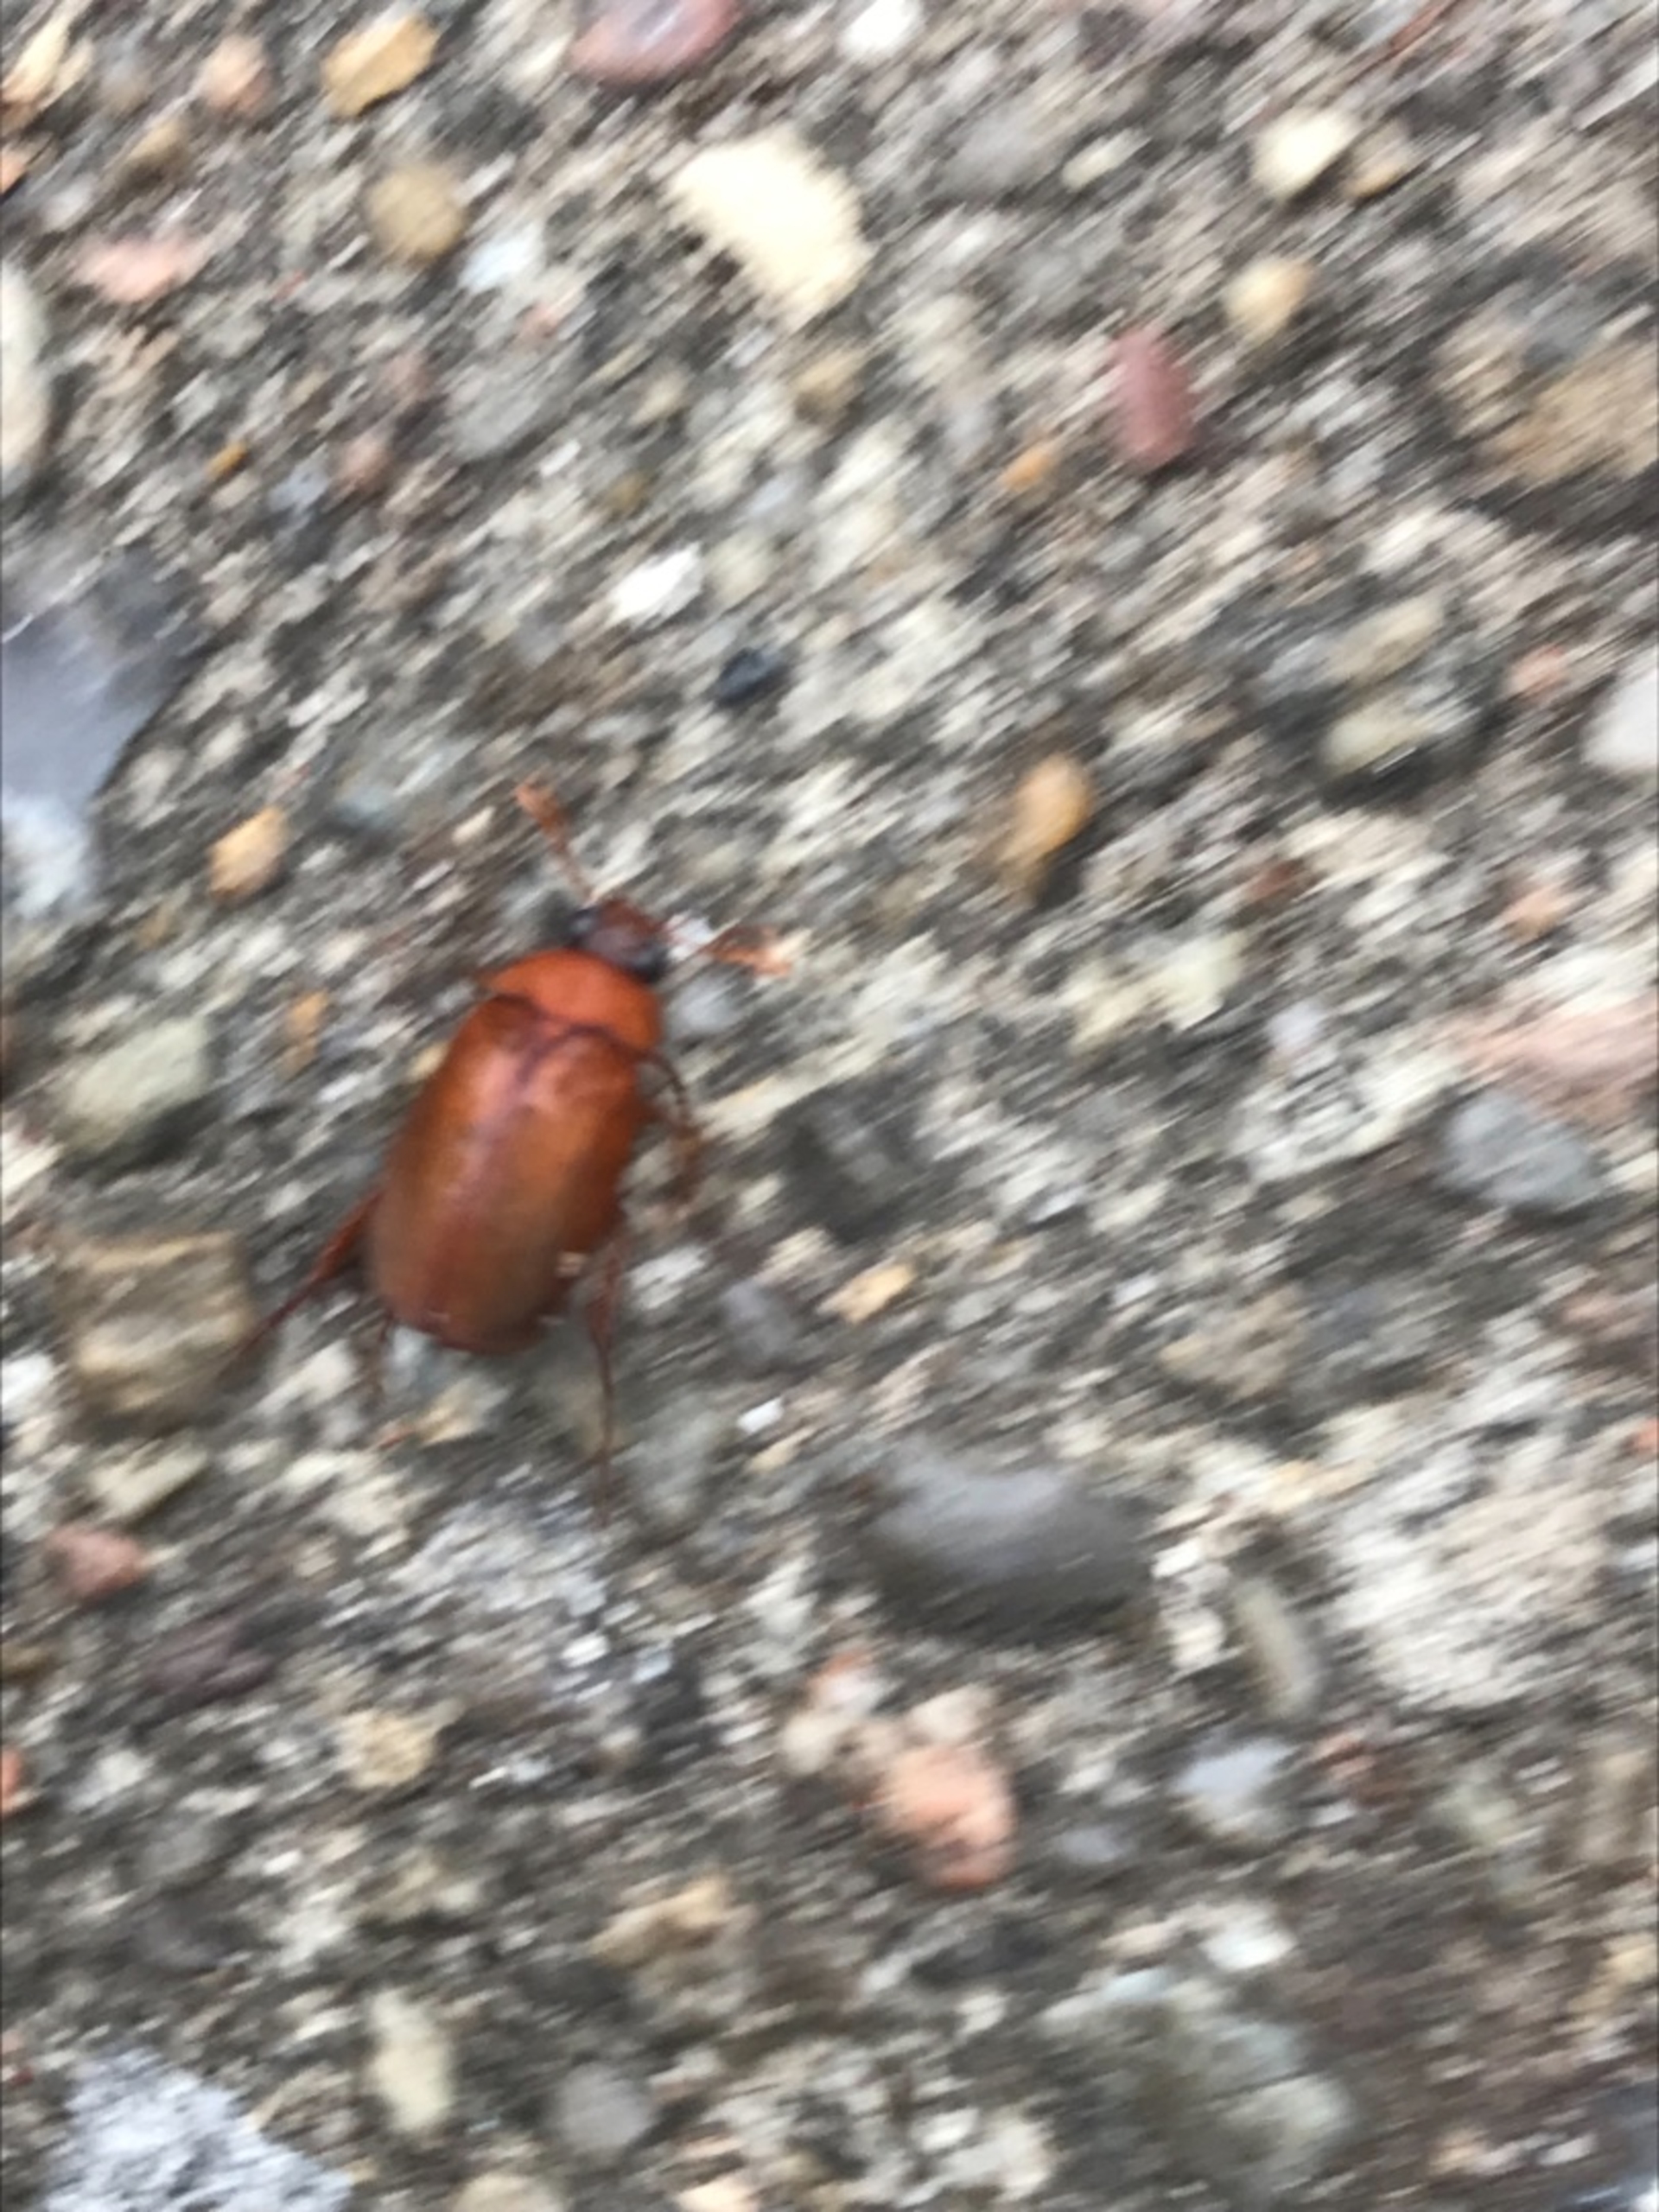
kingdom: Animalia
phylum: Arthropoda
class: Insecta
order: Coleoptera
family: Scarabaeidae
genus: Serica
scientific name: Serica brunnea
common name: Natoldenborre
